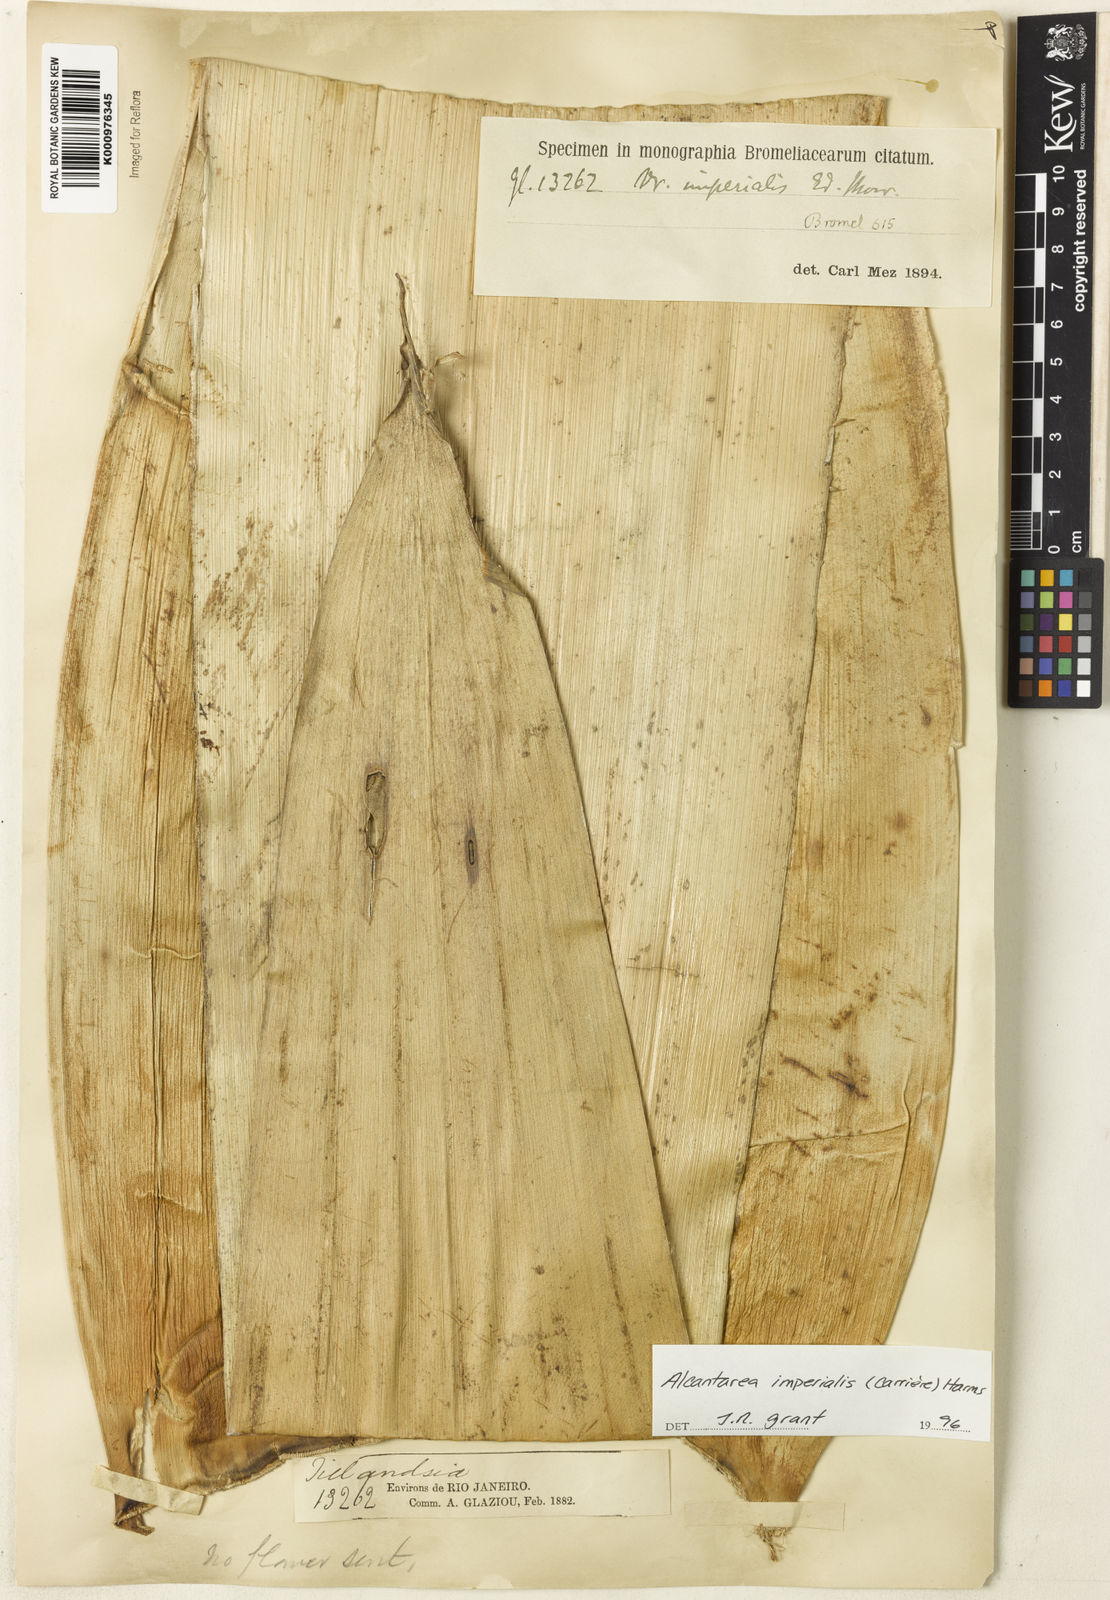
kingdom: Plantae
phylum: Tracheophyta
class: Liliopsida
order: Poales
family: Bromeliaceae
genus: Vriesea
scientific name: Vriesea
